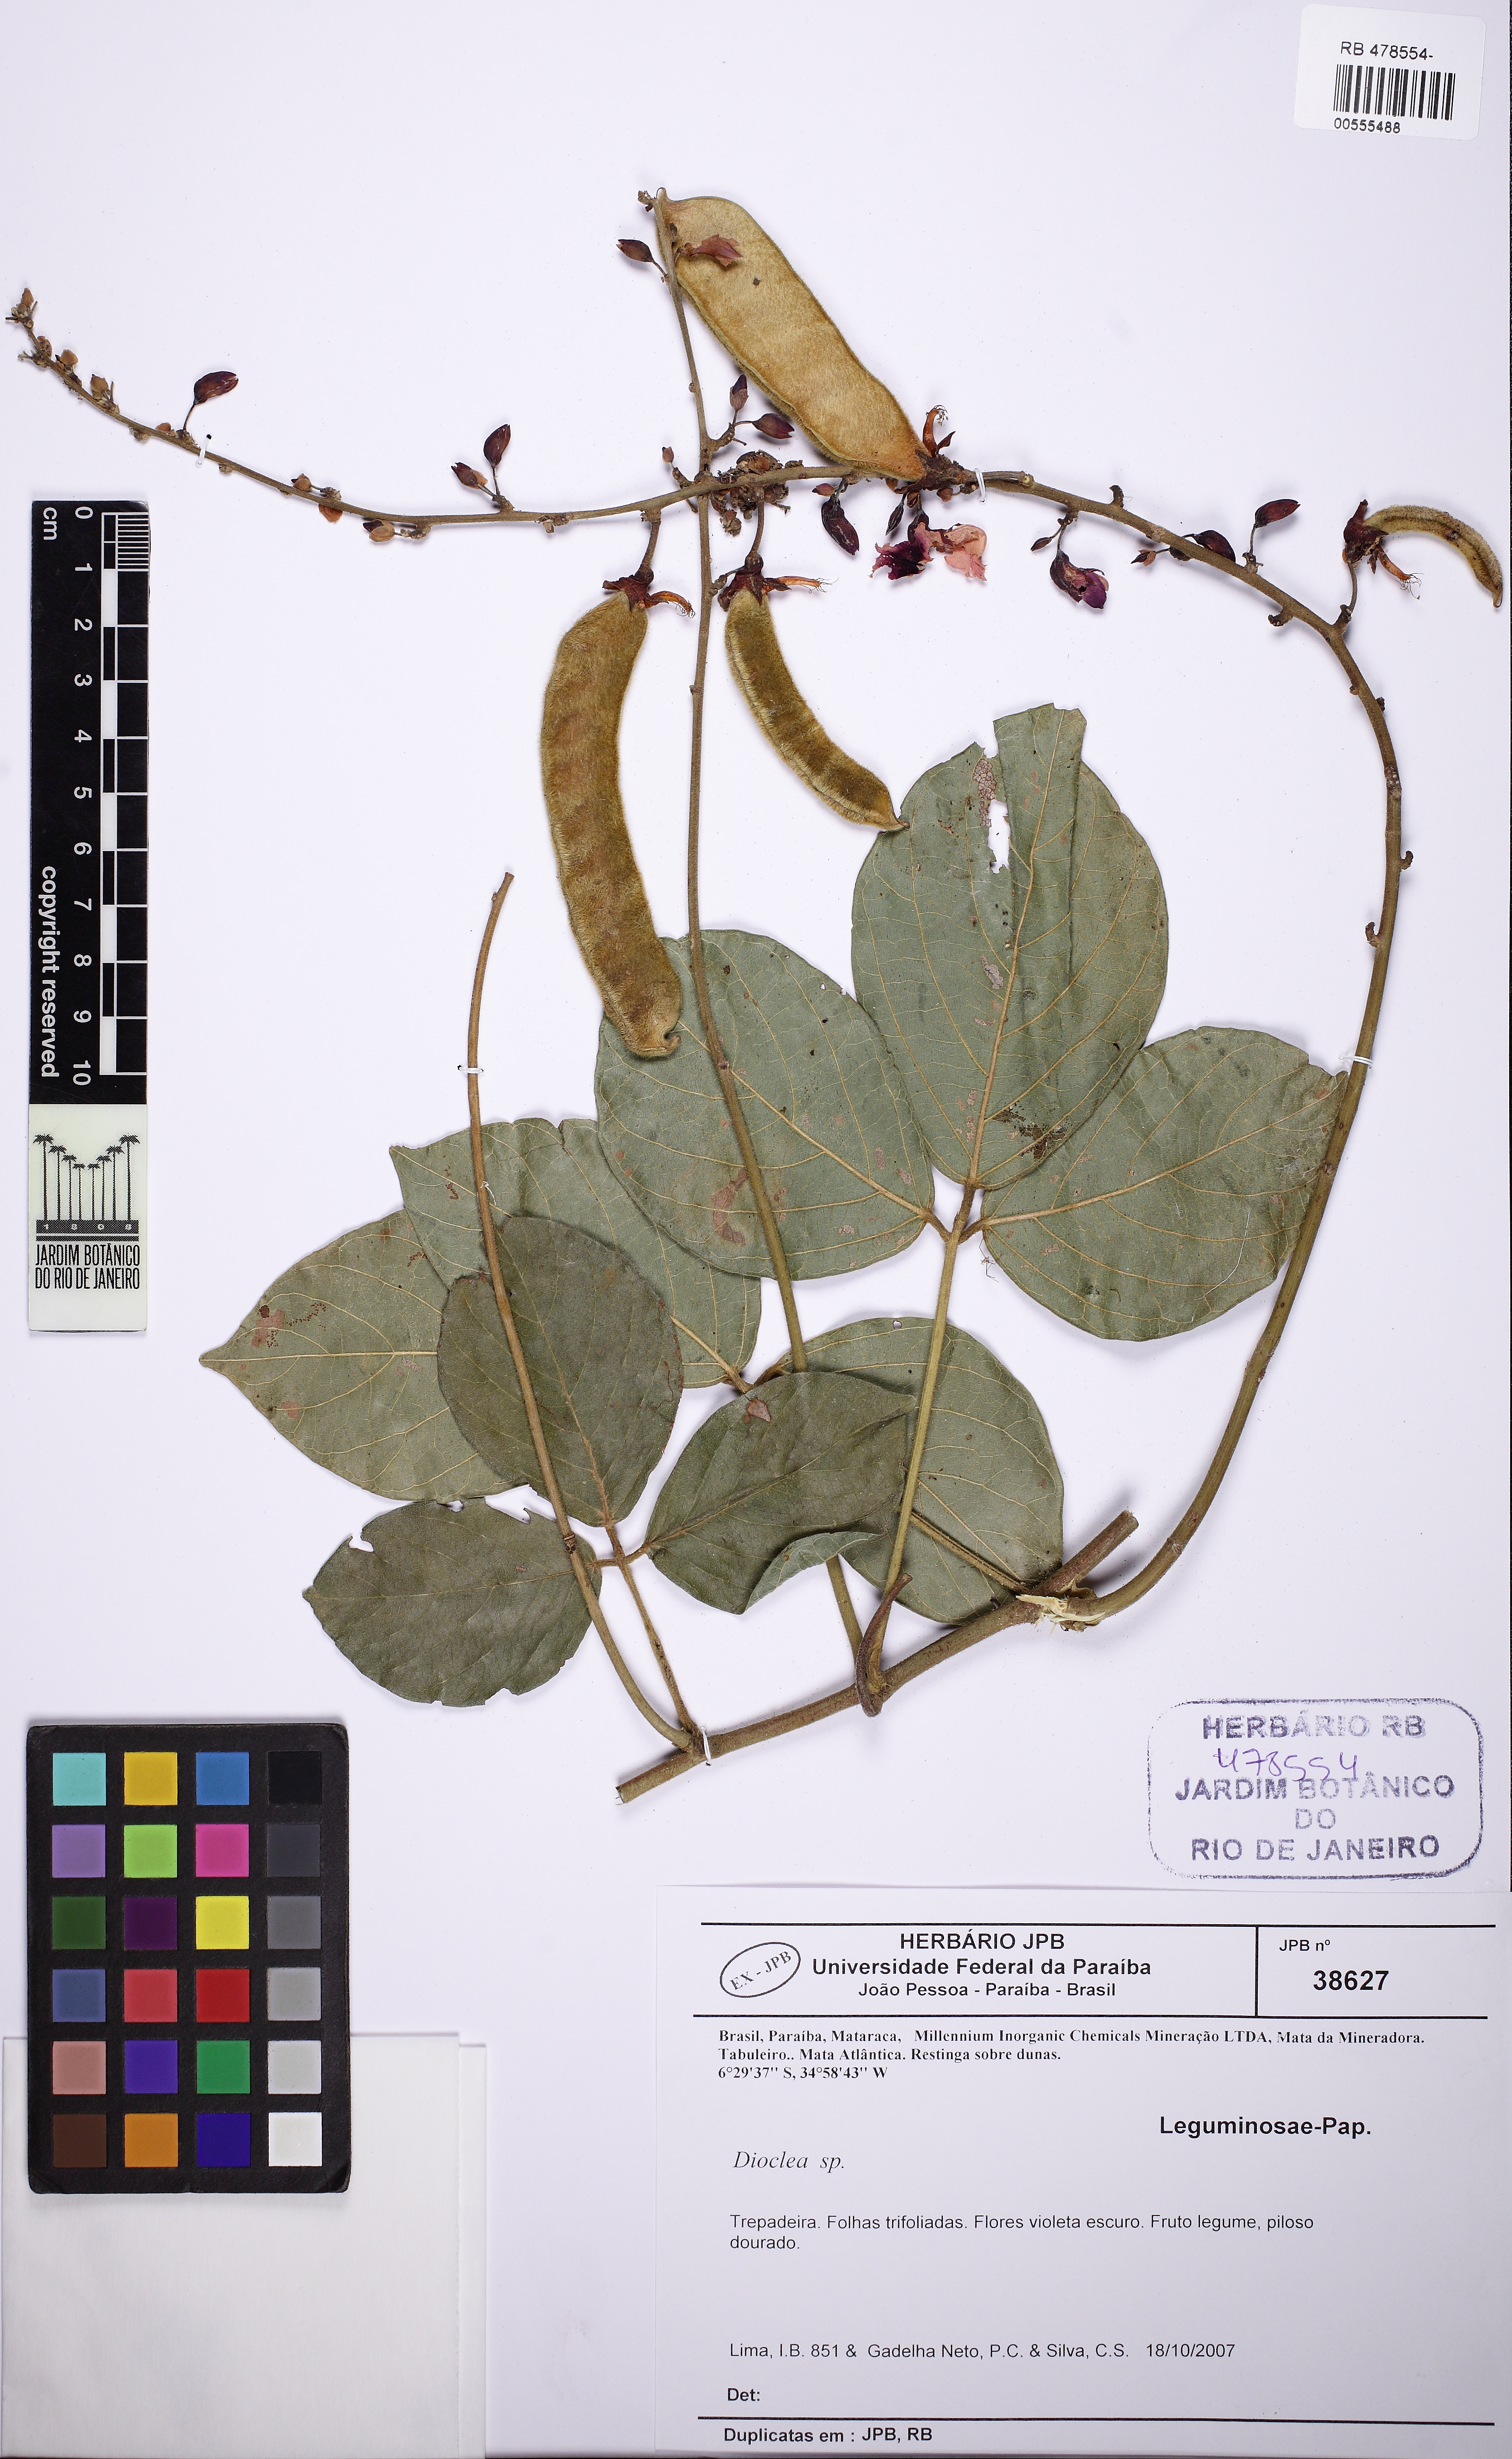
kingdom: Plantae
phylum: Tracheophyta
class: Magnoliopsida
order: Fabales
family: Fabaceae
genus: Dioclea
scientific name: Dioclea virgata
